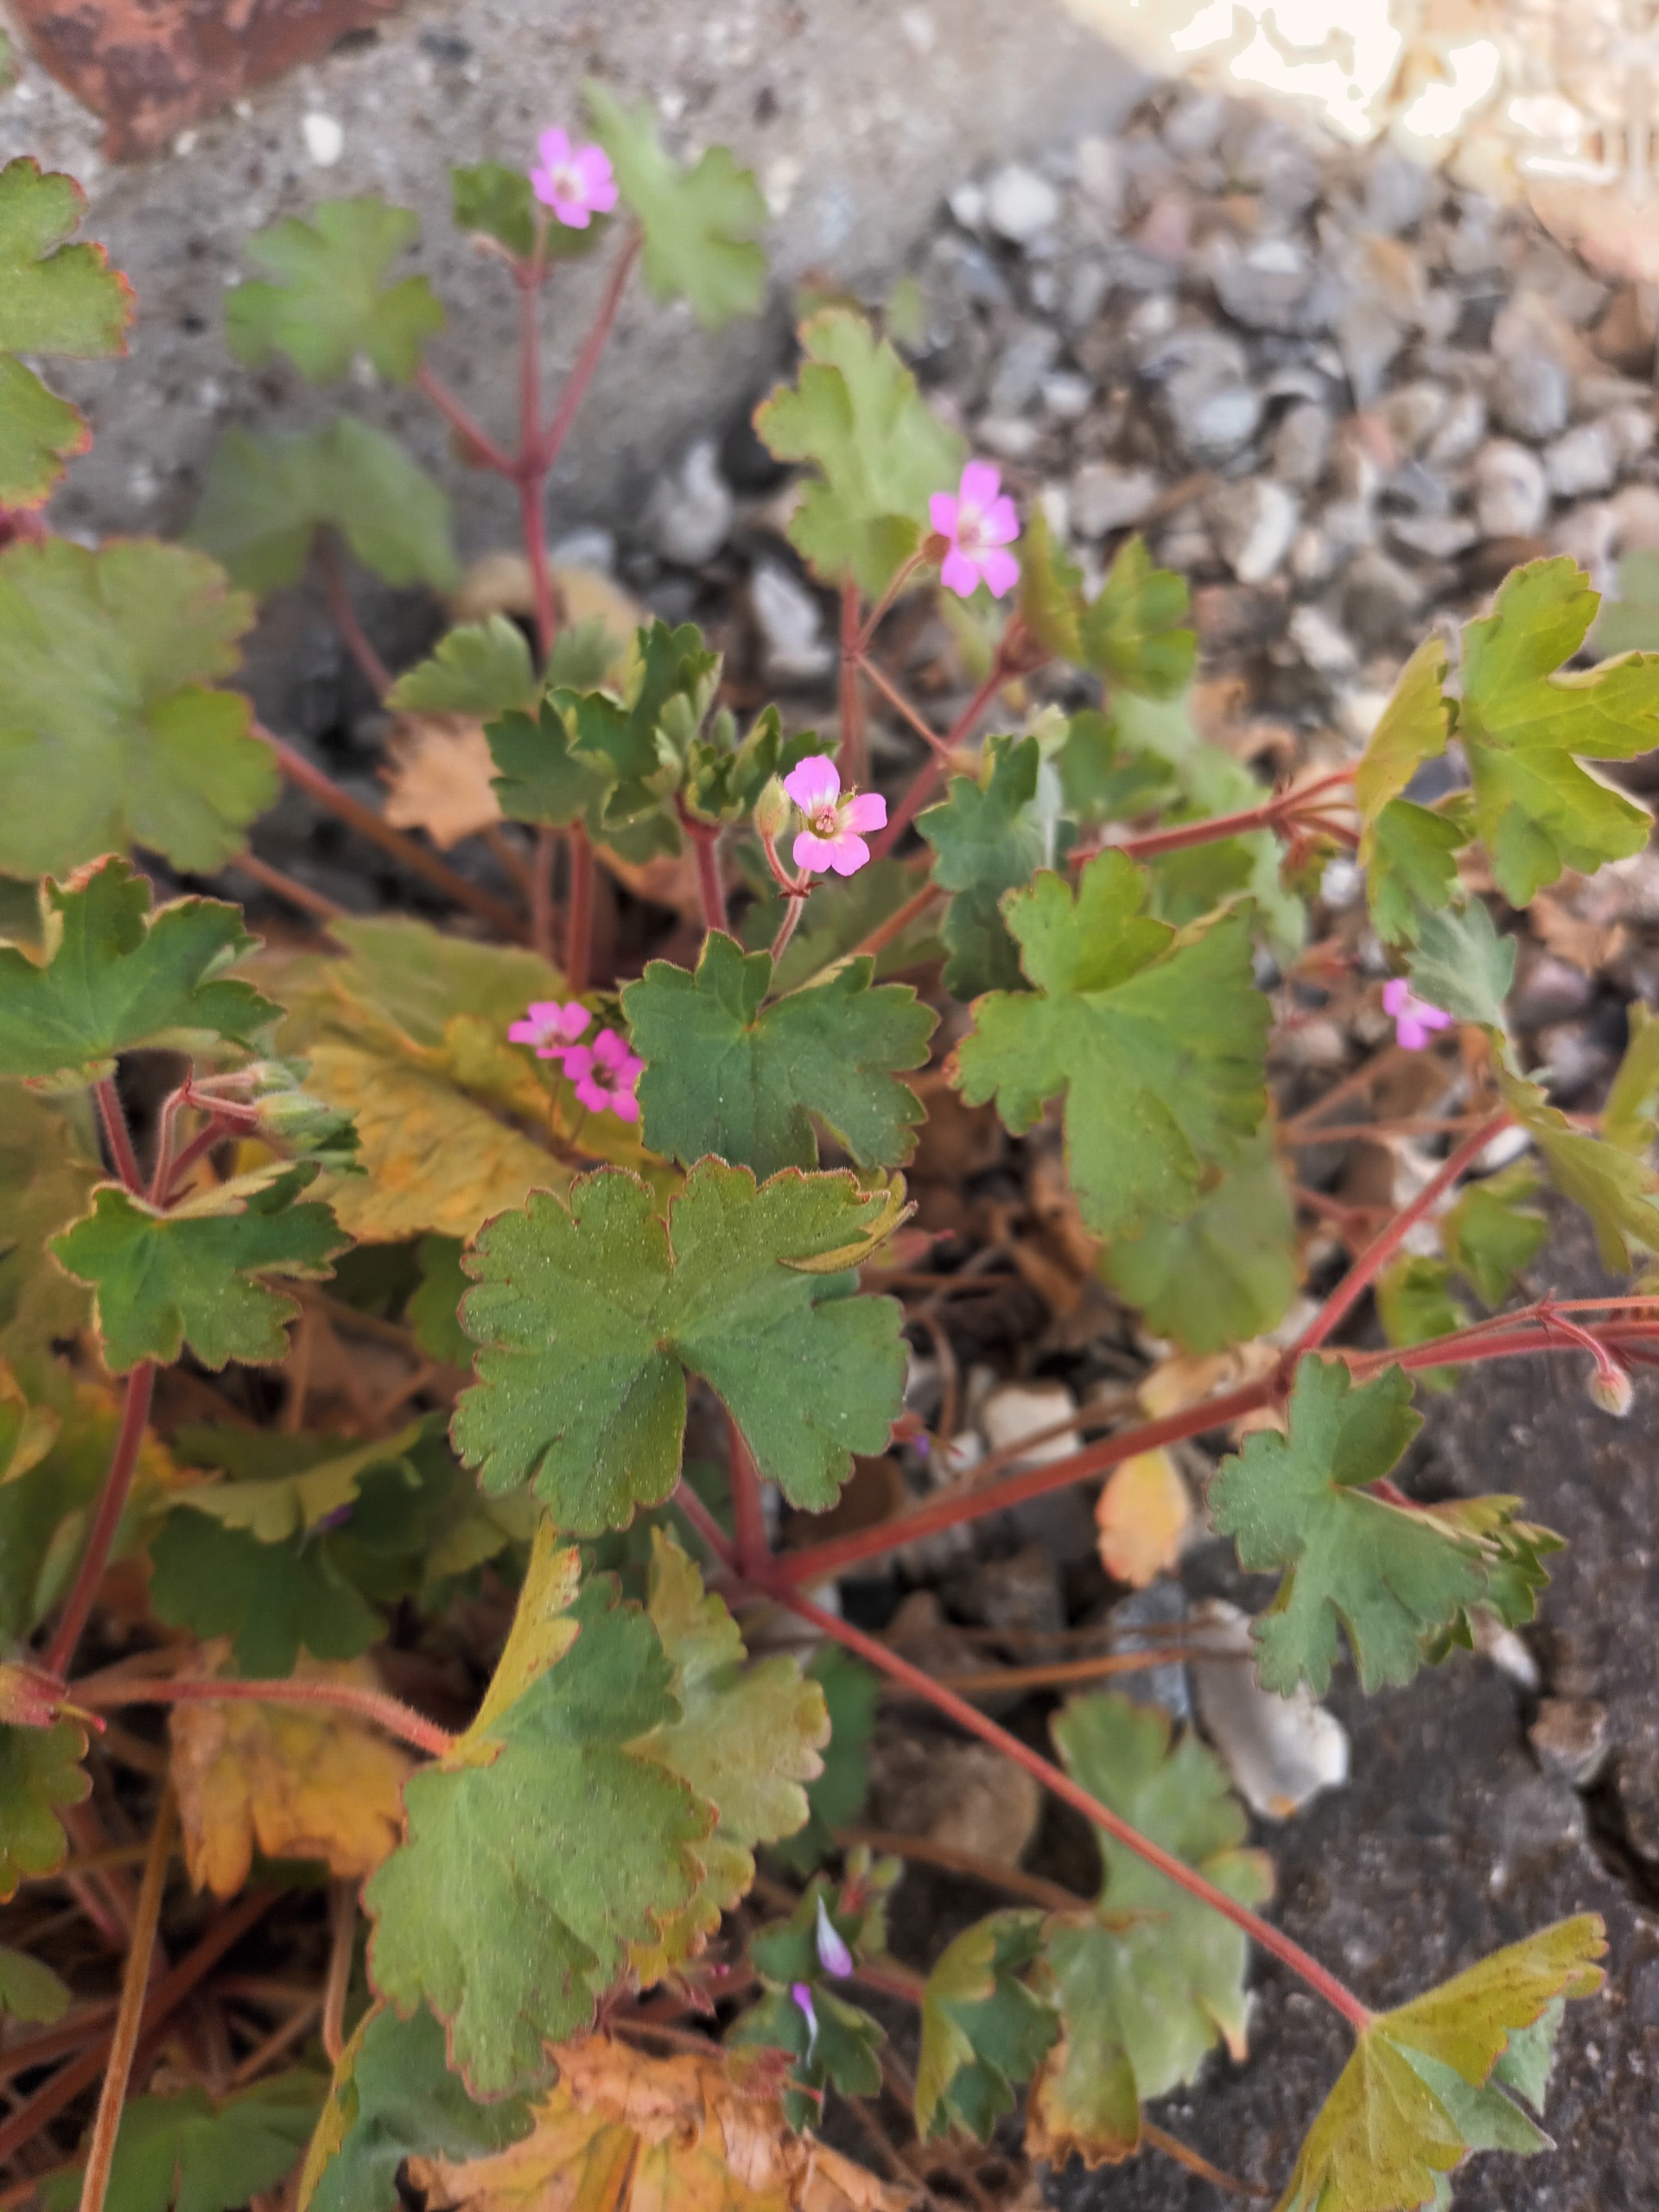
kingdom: Plantae
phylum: Tracheophyta
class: Magnoliopsida
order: Geraniales
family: Geraniaceae
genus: Geranium
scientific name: Geranium rotundifolium
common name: Rundbladet storkenæb
